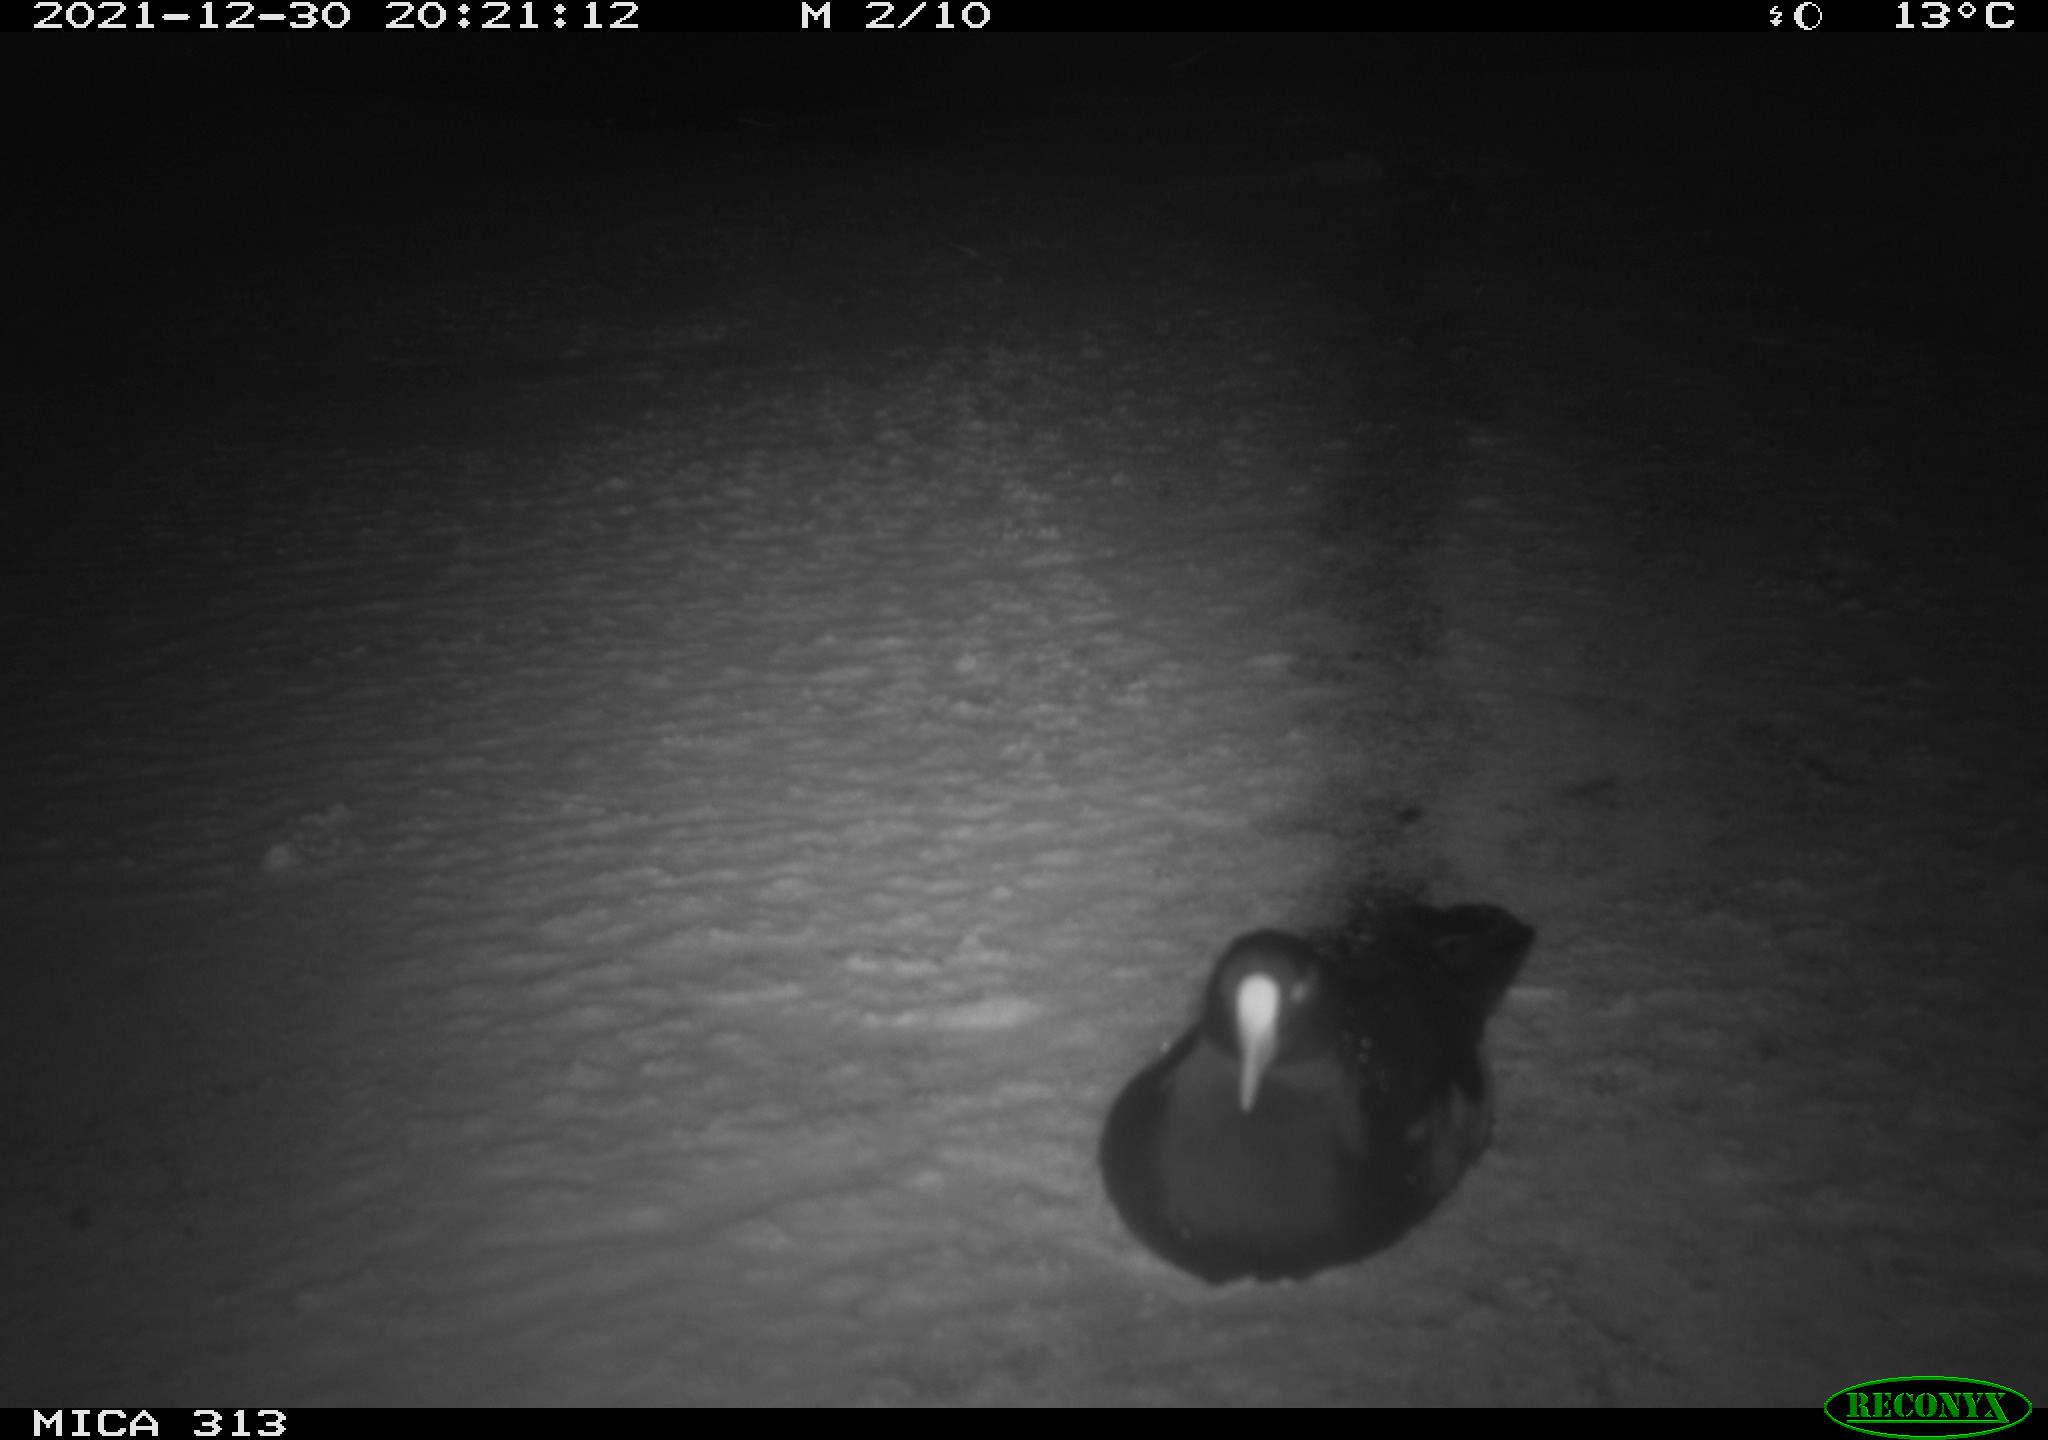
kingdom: Animalia
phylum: Chordata
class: Aves
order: Gruiformes
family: Rallidae
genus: Gallinula
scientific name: Gallinula chloropus
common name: Common moorhen
